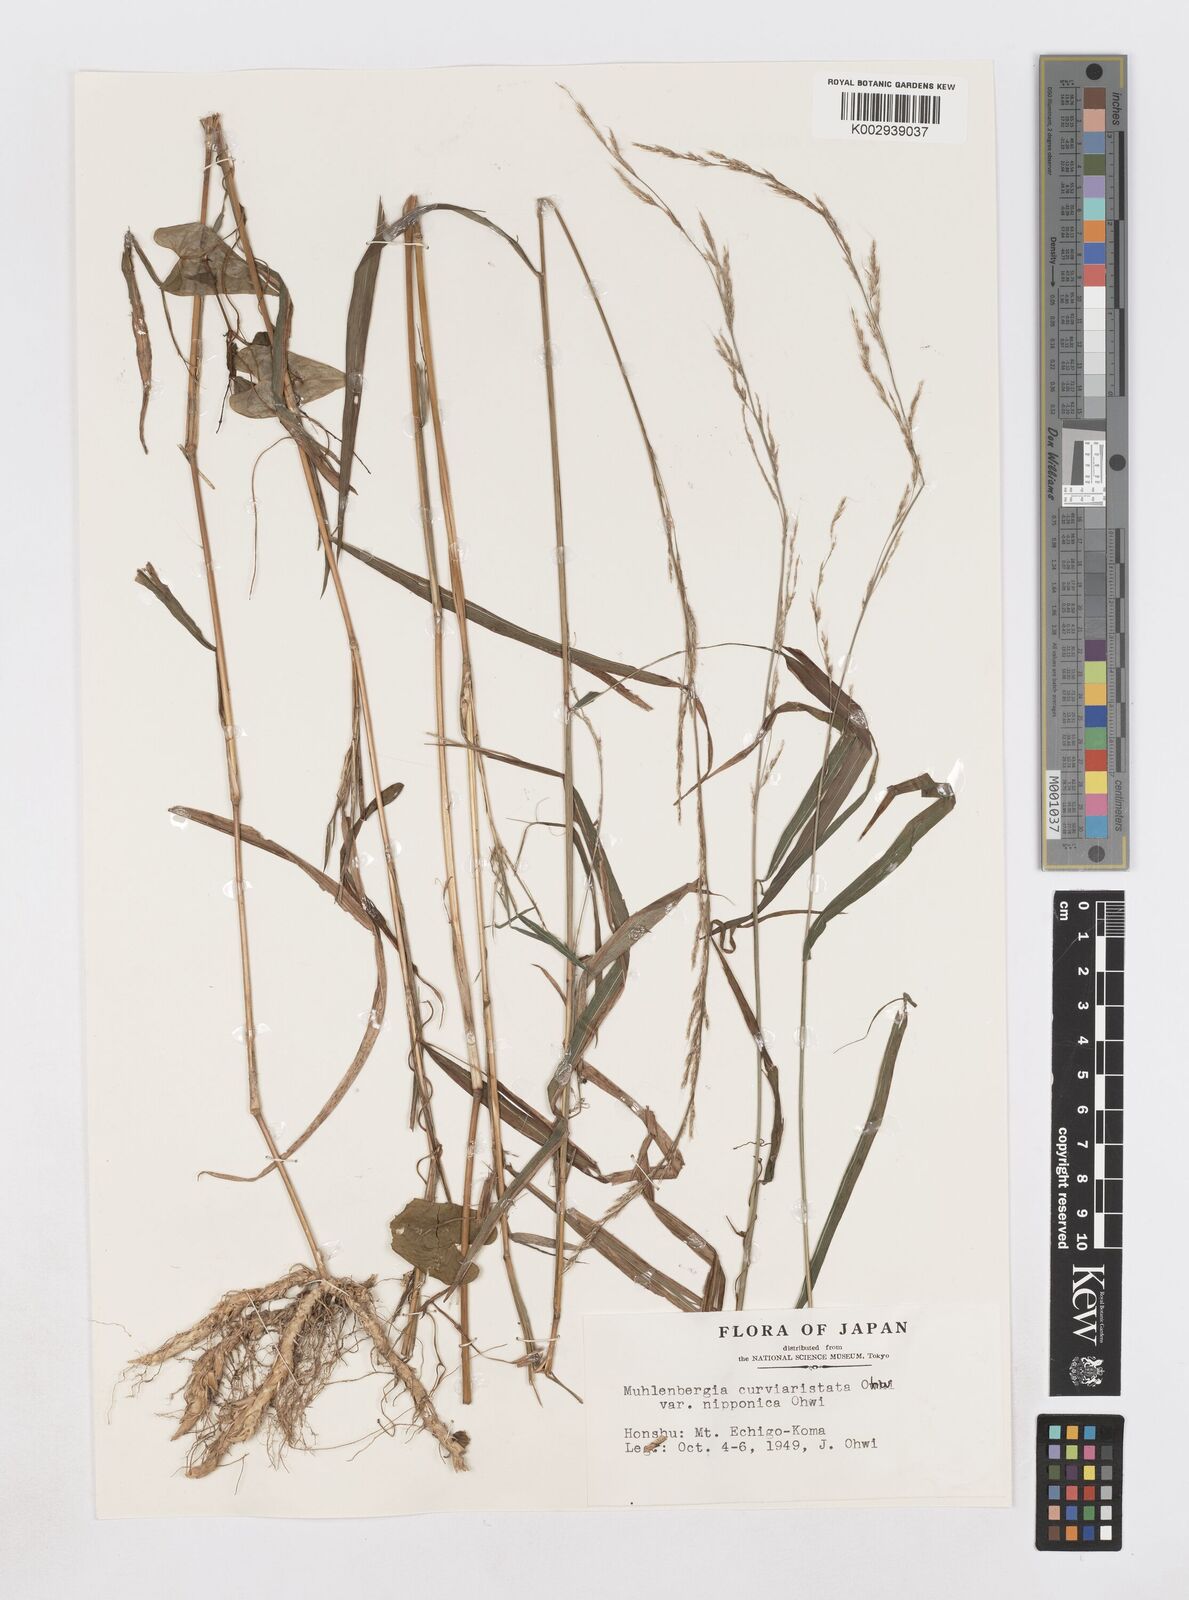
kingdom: Plantae
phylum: Tracheophyta
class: Liliopsida
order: Poales
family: Poaceae
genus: Muhlenbergia
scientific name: Muhlenbergia curviaristata
